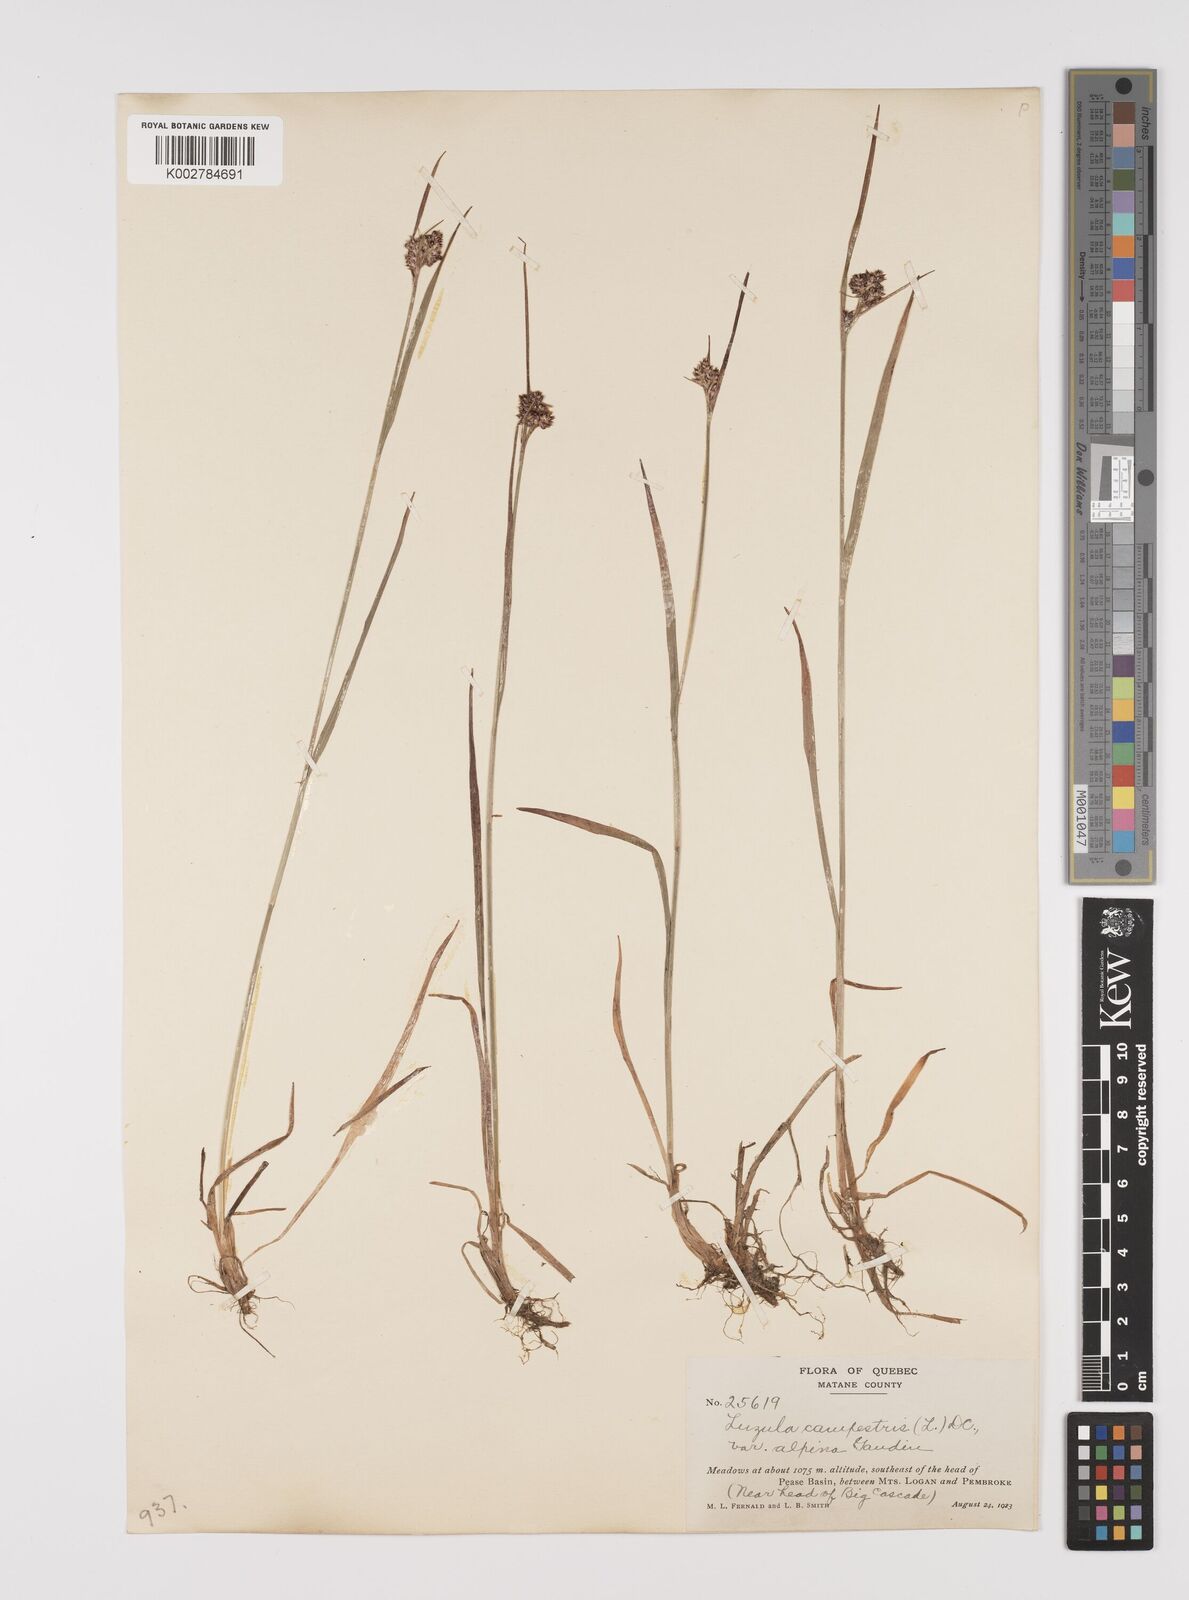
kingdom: Plantae
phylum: Tracheophyta
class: Liliopsida
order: Poales
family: Juncaceae
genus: Luzula
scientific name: Luzula campestris
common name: Field wood-rush
